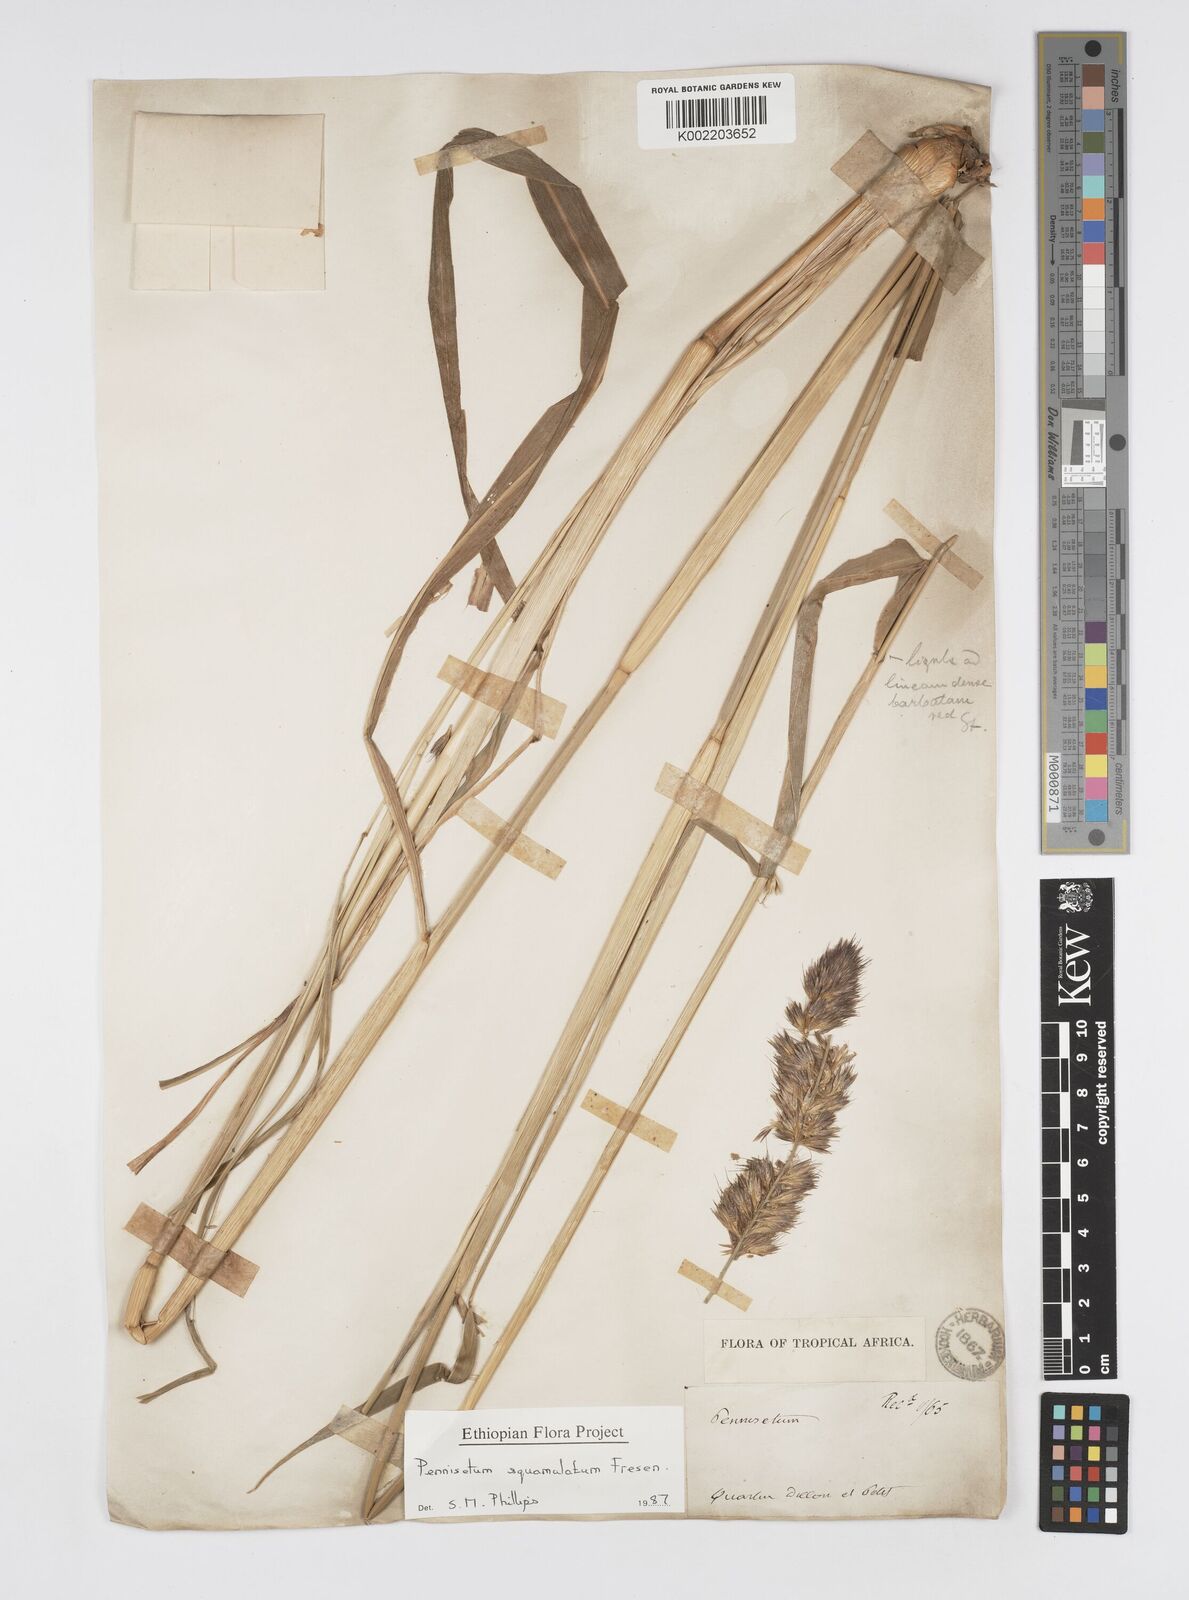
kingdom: Plantae
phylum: Tracheophyta
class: Liliopsida
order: Poales
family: Poaceae
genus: Cenchrus
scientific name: Cenchrus squamulatus
